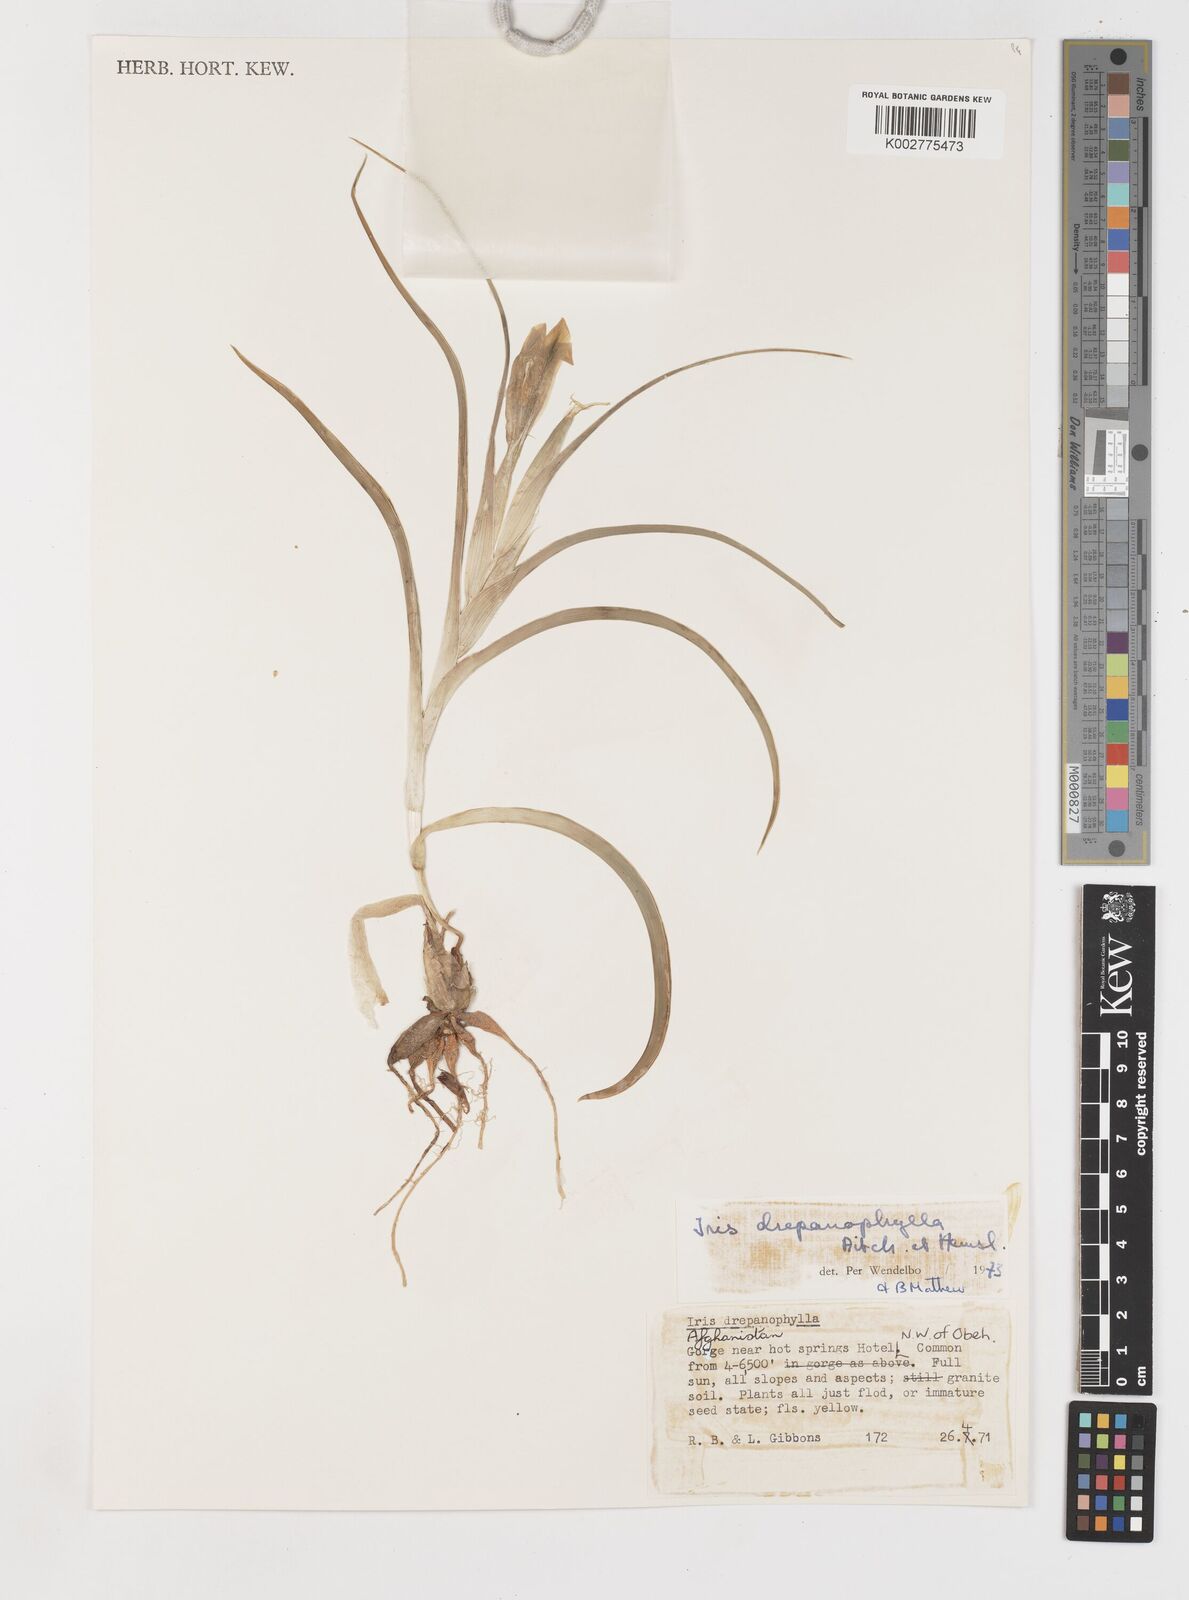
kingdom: Plantae
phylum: Tracheophyta
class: Liliopsida
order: Asparagales
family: Iridaceae
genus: Iris
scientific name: Iris drepanophylla
